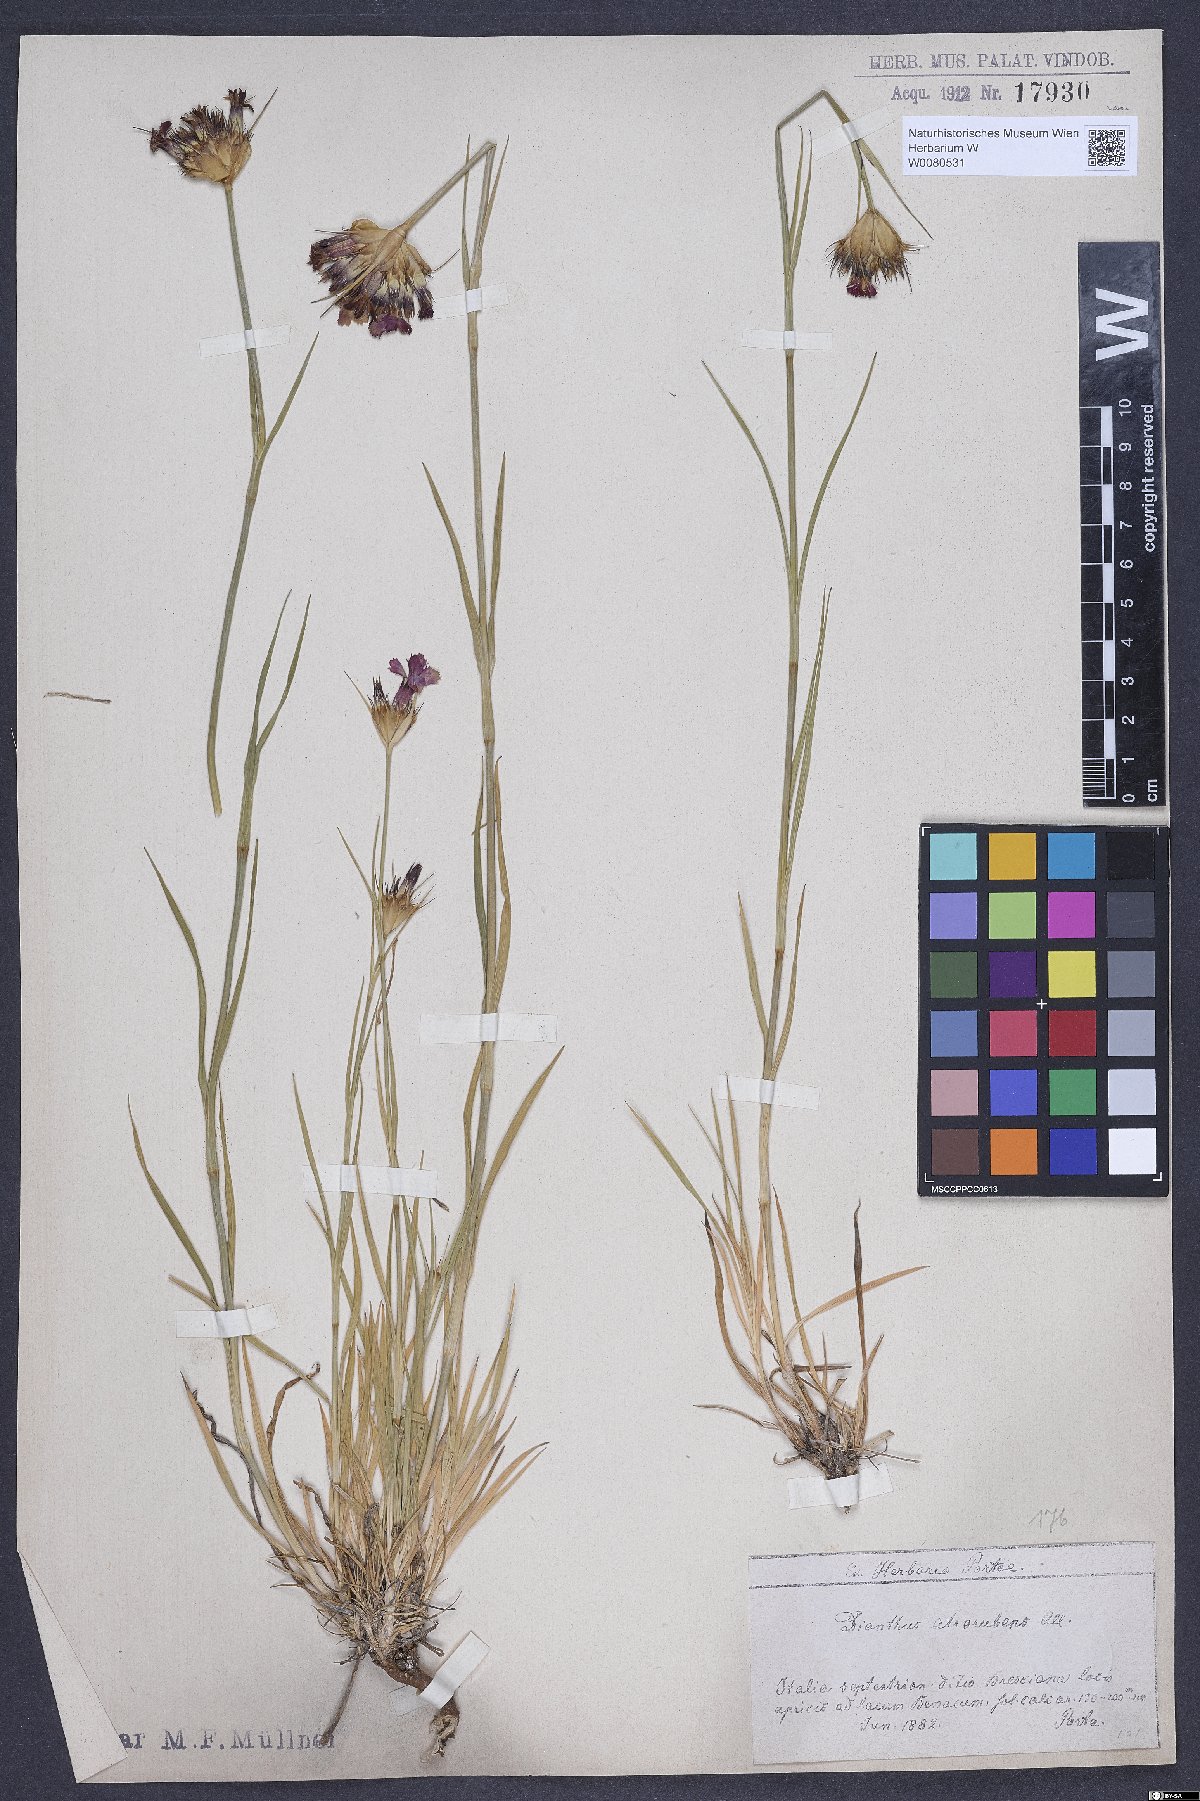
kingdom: Plantae
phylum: Tracheophyta
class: Magnoliopsida
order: Caryophyllales
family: Caryophyllaceae
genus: Dianthus
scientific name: Dianthus carthusianorum
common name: Carthusian pink
